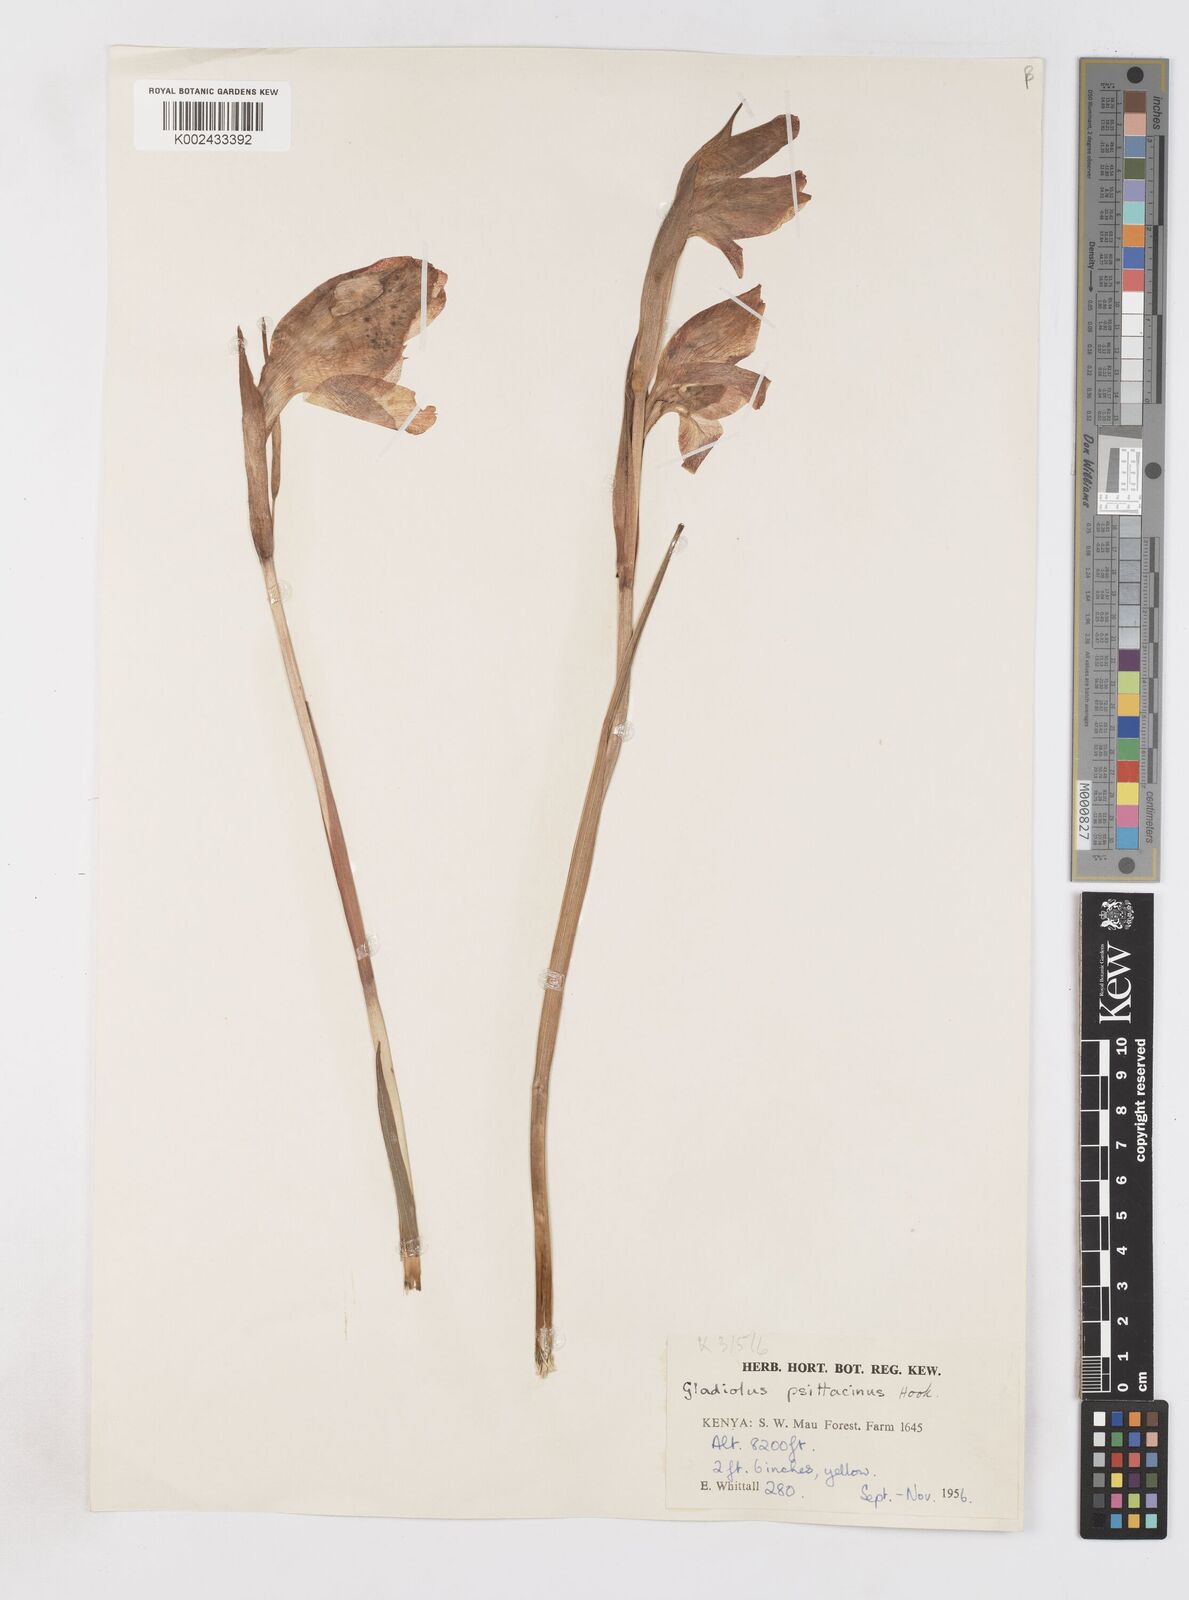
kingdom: Plantae
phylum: Tracheophyta
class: Liliopsida
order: Asparagales
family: Iridaceae
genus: Gladiolus
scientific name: Gladiolus dalenii
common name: Cornflag
